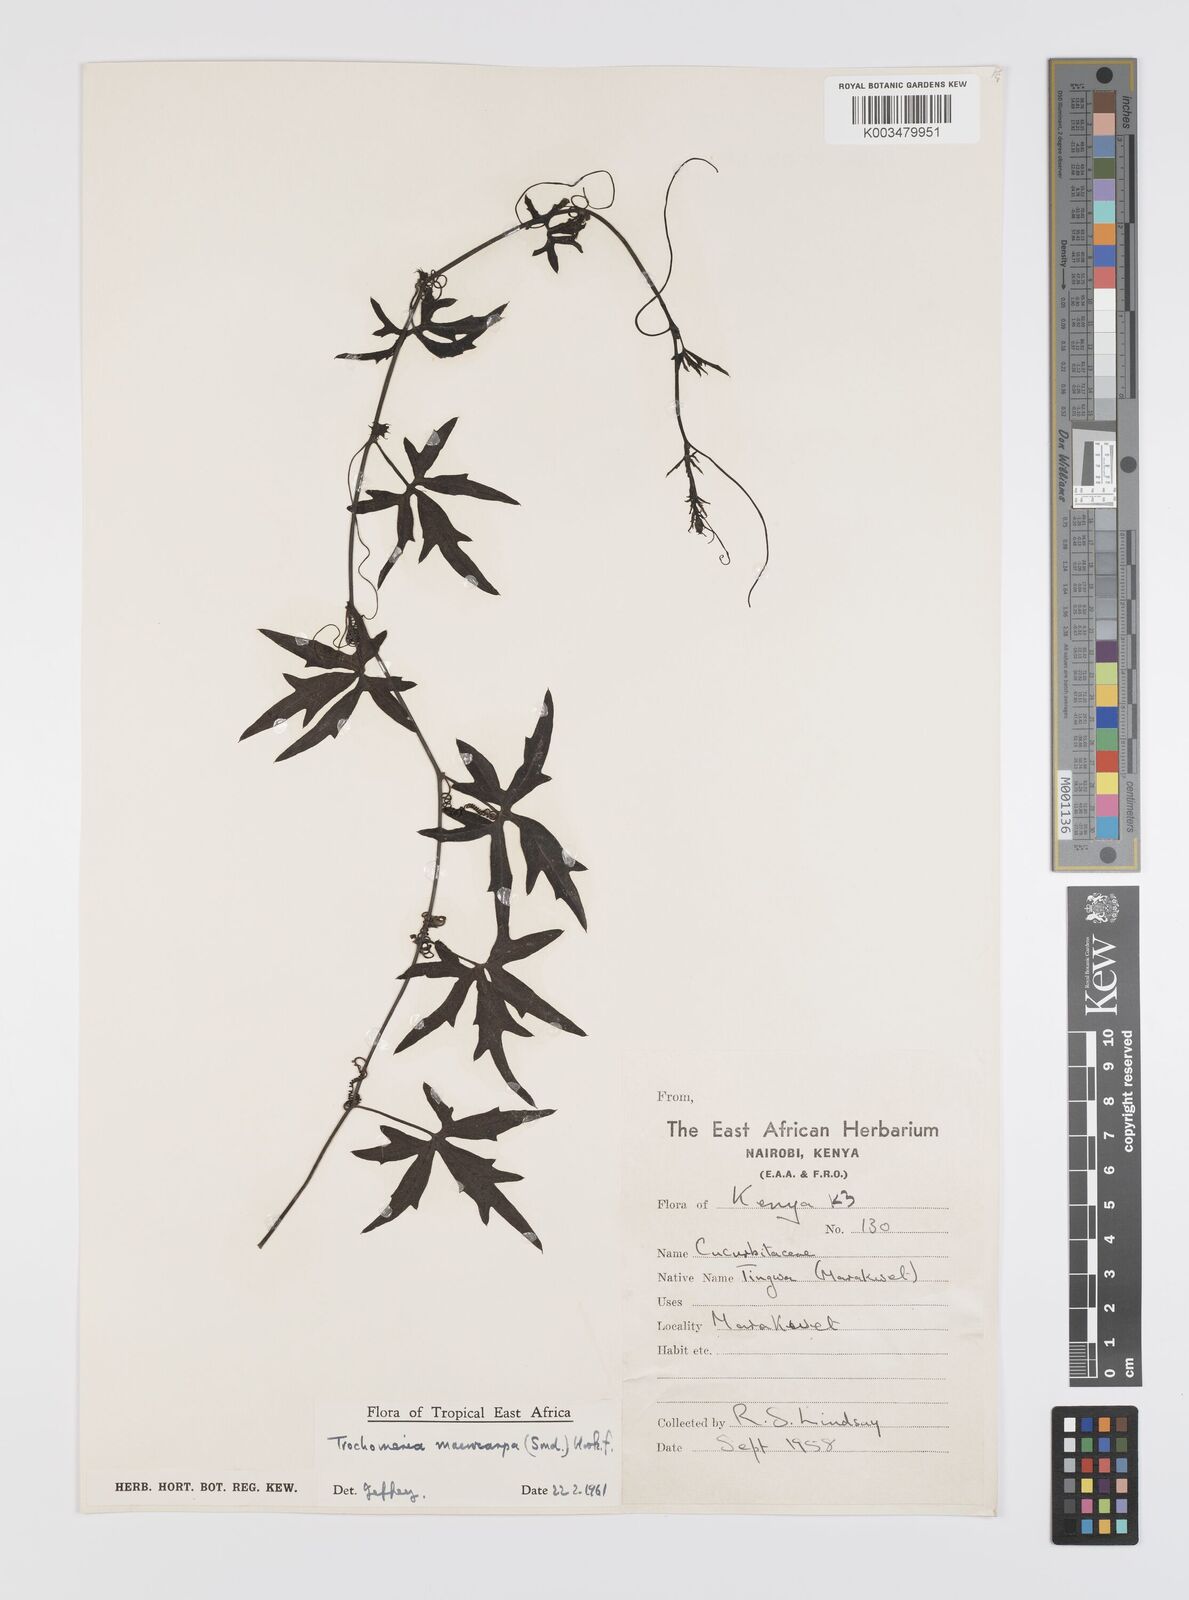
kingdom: Plantae
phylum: Tracheophyta
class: Magnoliopsida
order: Cucurbitales
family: Cucurbitaceae
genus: Trochomeria
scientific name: Trochomeria macrocarpa
